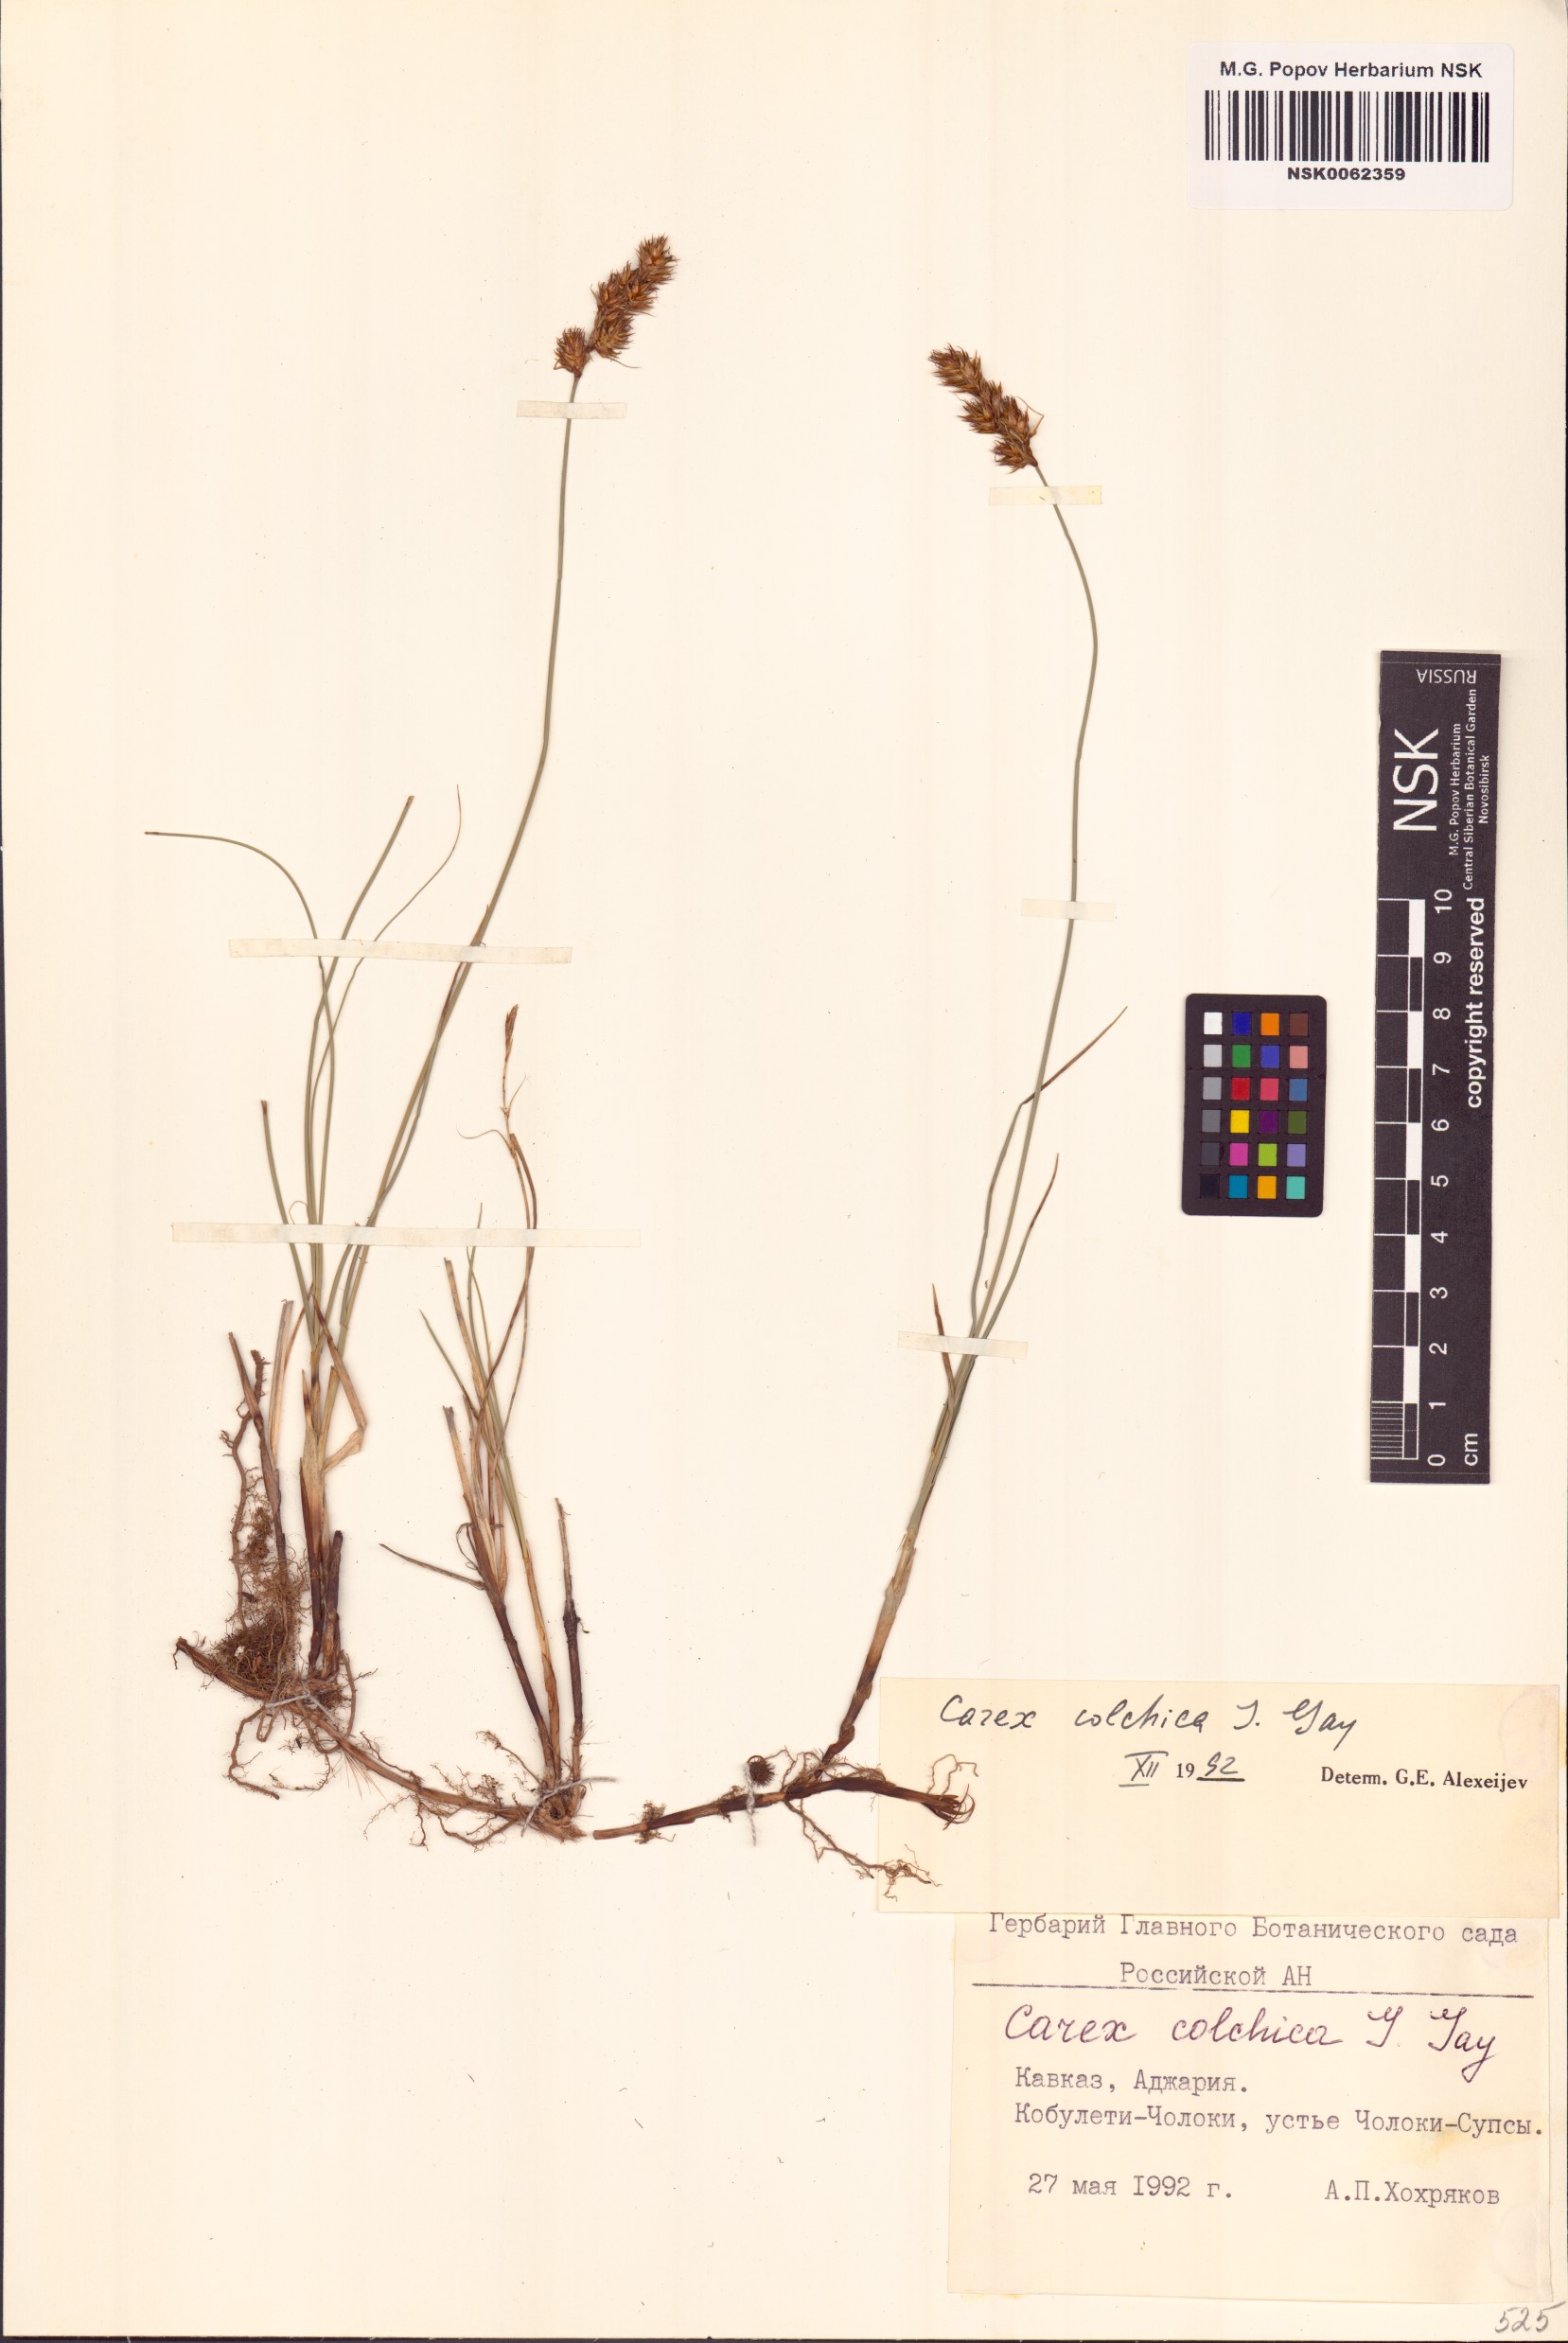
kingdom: Plantae
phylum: Tracheophyta
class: Liliopsida
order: Poales
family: Cyperaceae
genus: Carex
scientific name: Carex colchica
